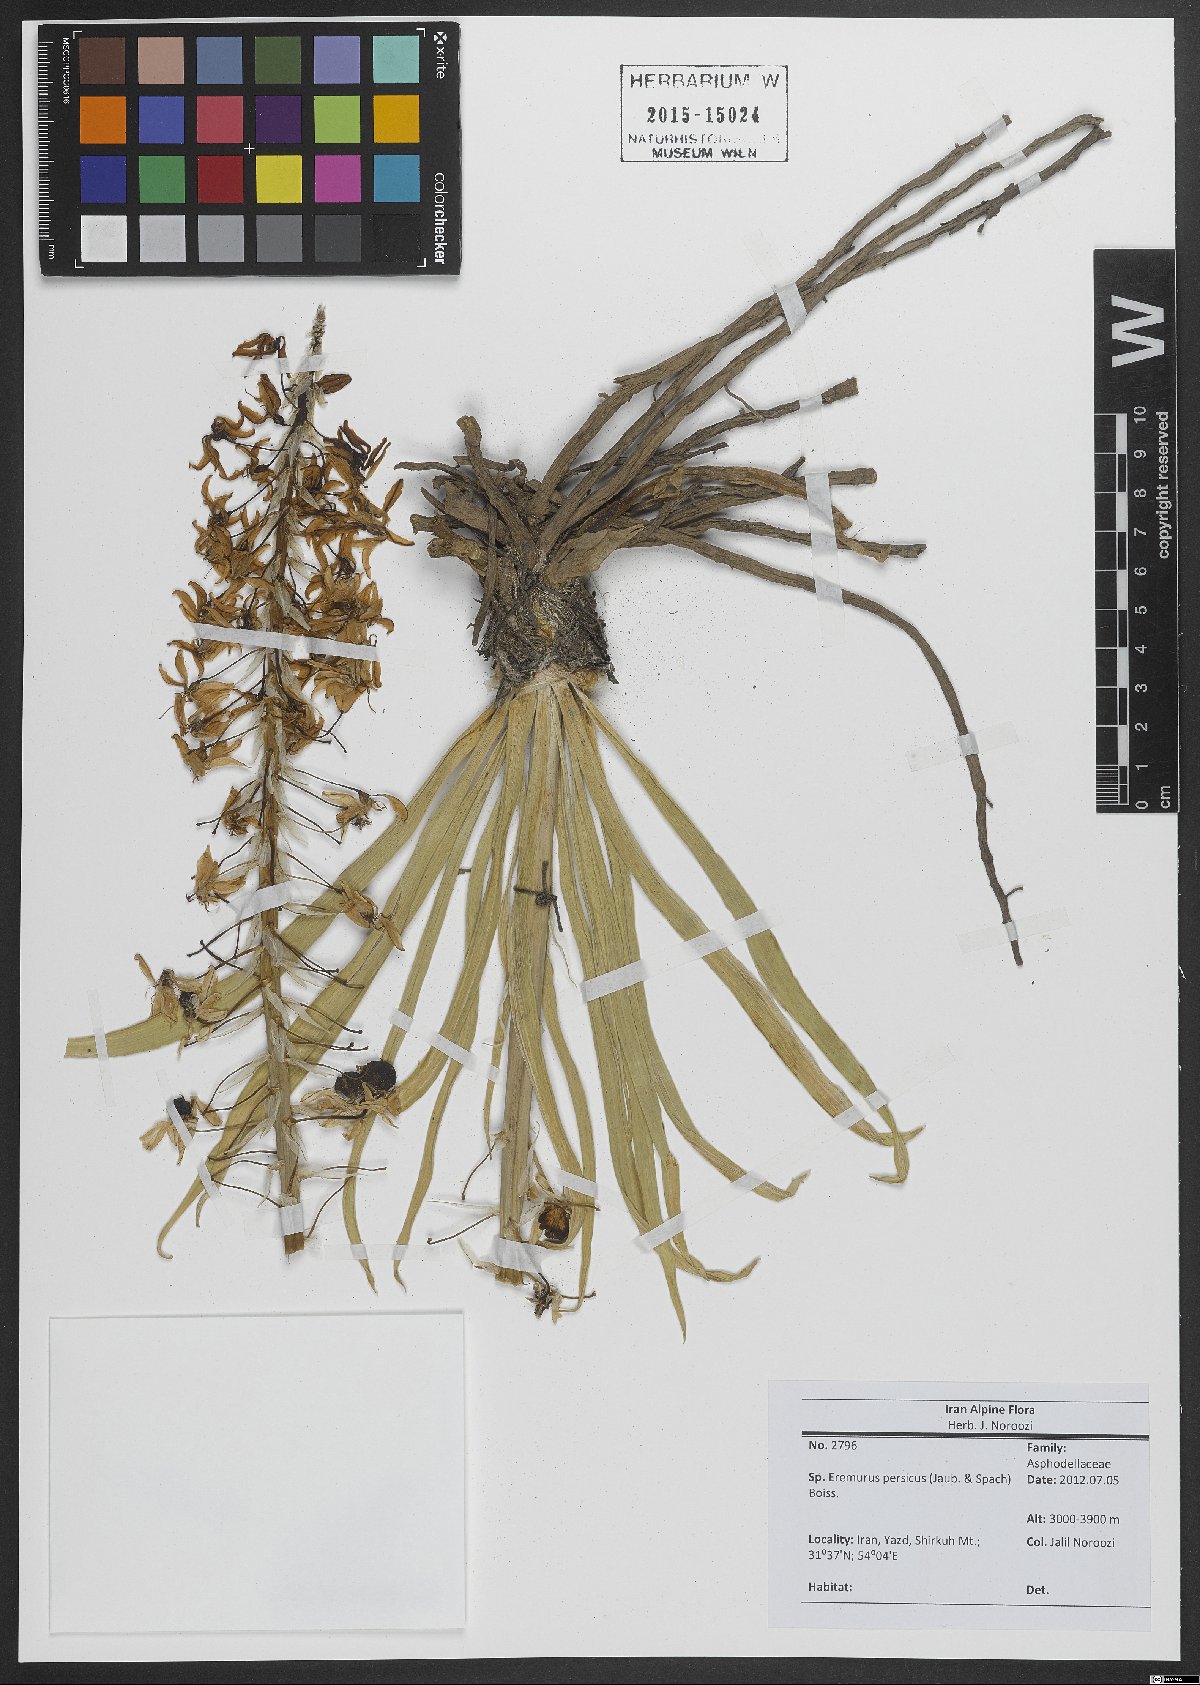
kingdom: Plantae
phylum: Tracheophyta
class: Liliopsida
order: Asparagales
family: Asphodelaceae
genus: Eremurus
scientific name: Eremurus persicus
